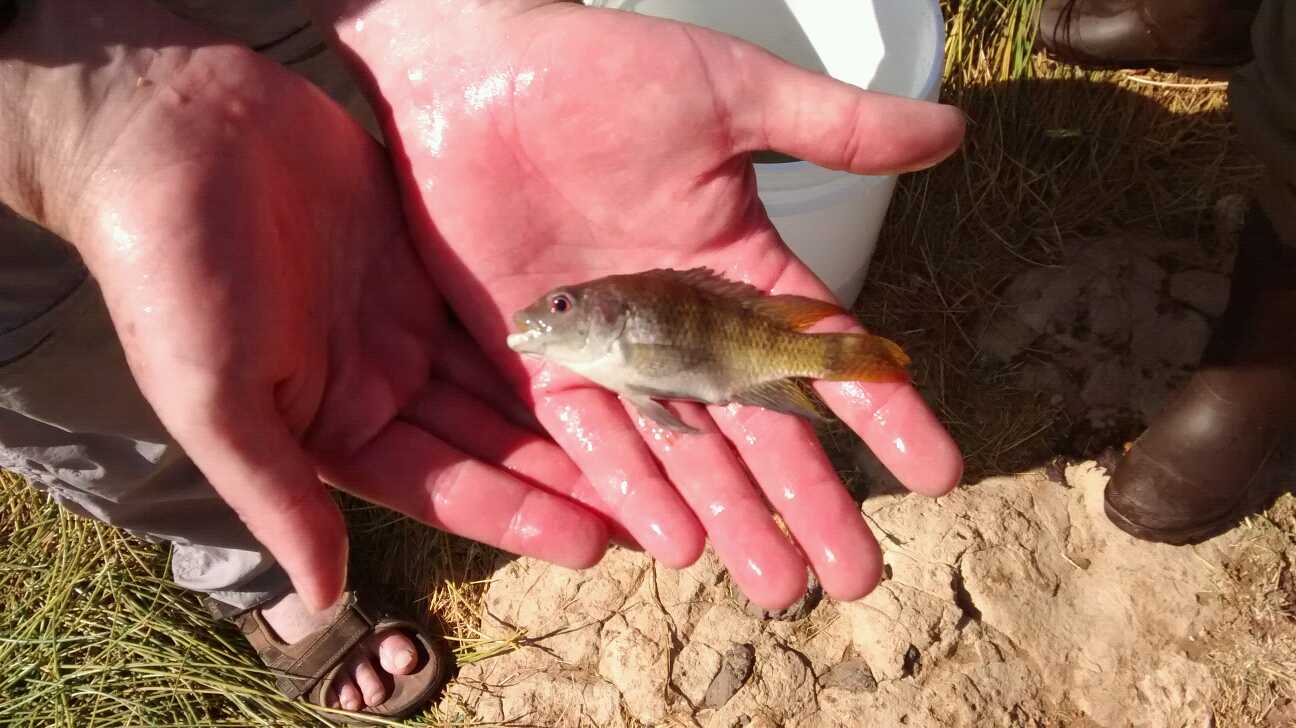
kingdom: Animalia
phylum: Chordata
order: Perciformes
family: Cichlidae
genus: Oreochromis
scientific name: Oreochromis spilurus
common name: Sabaki tilapia
